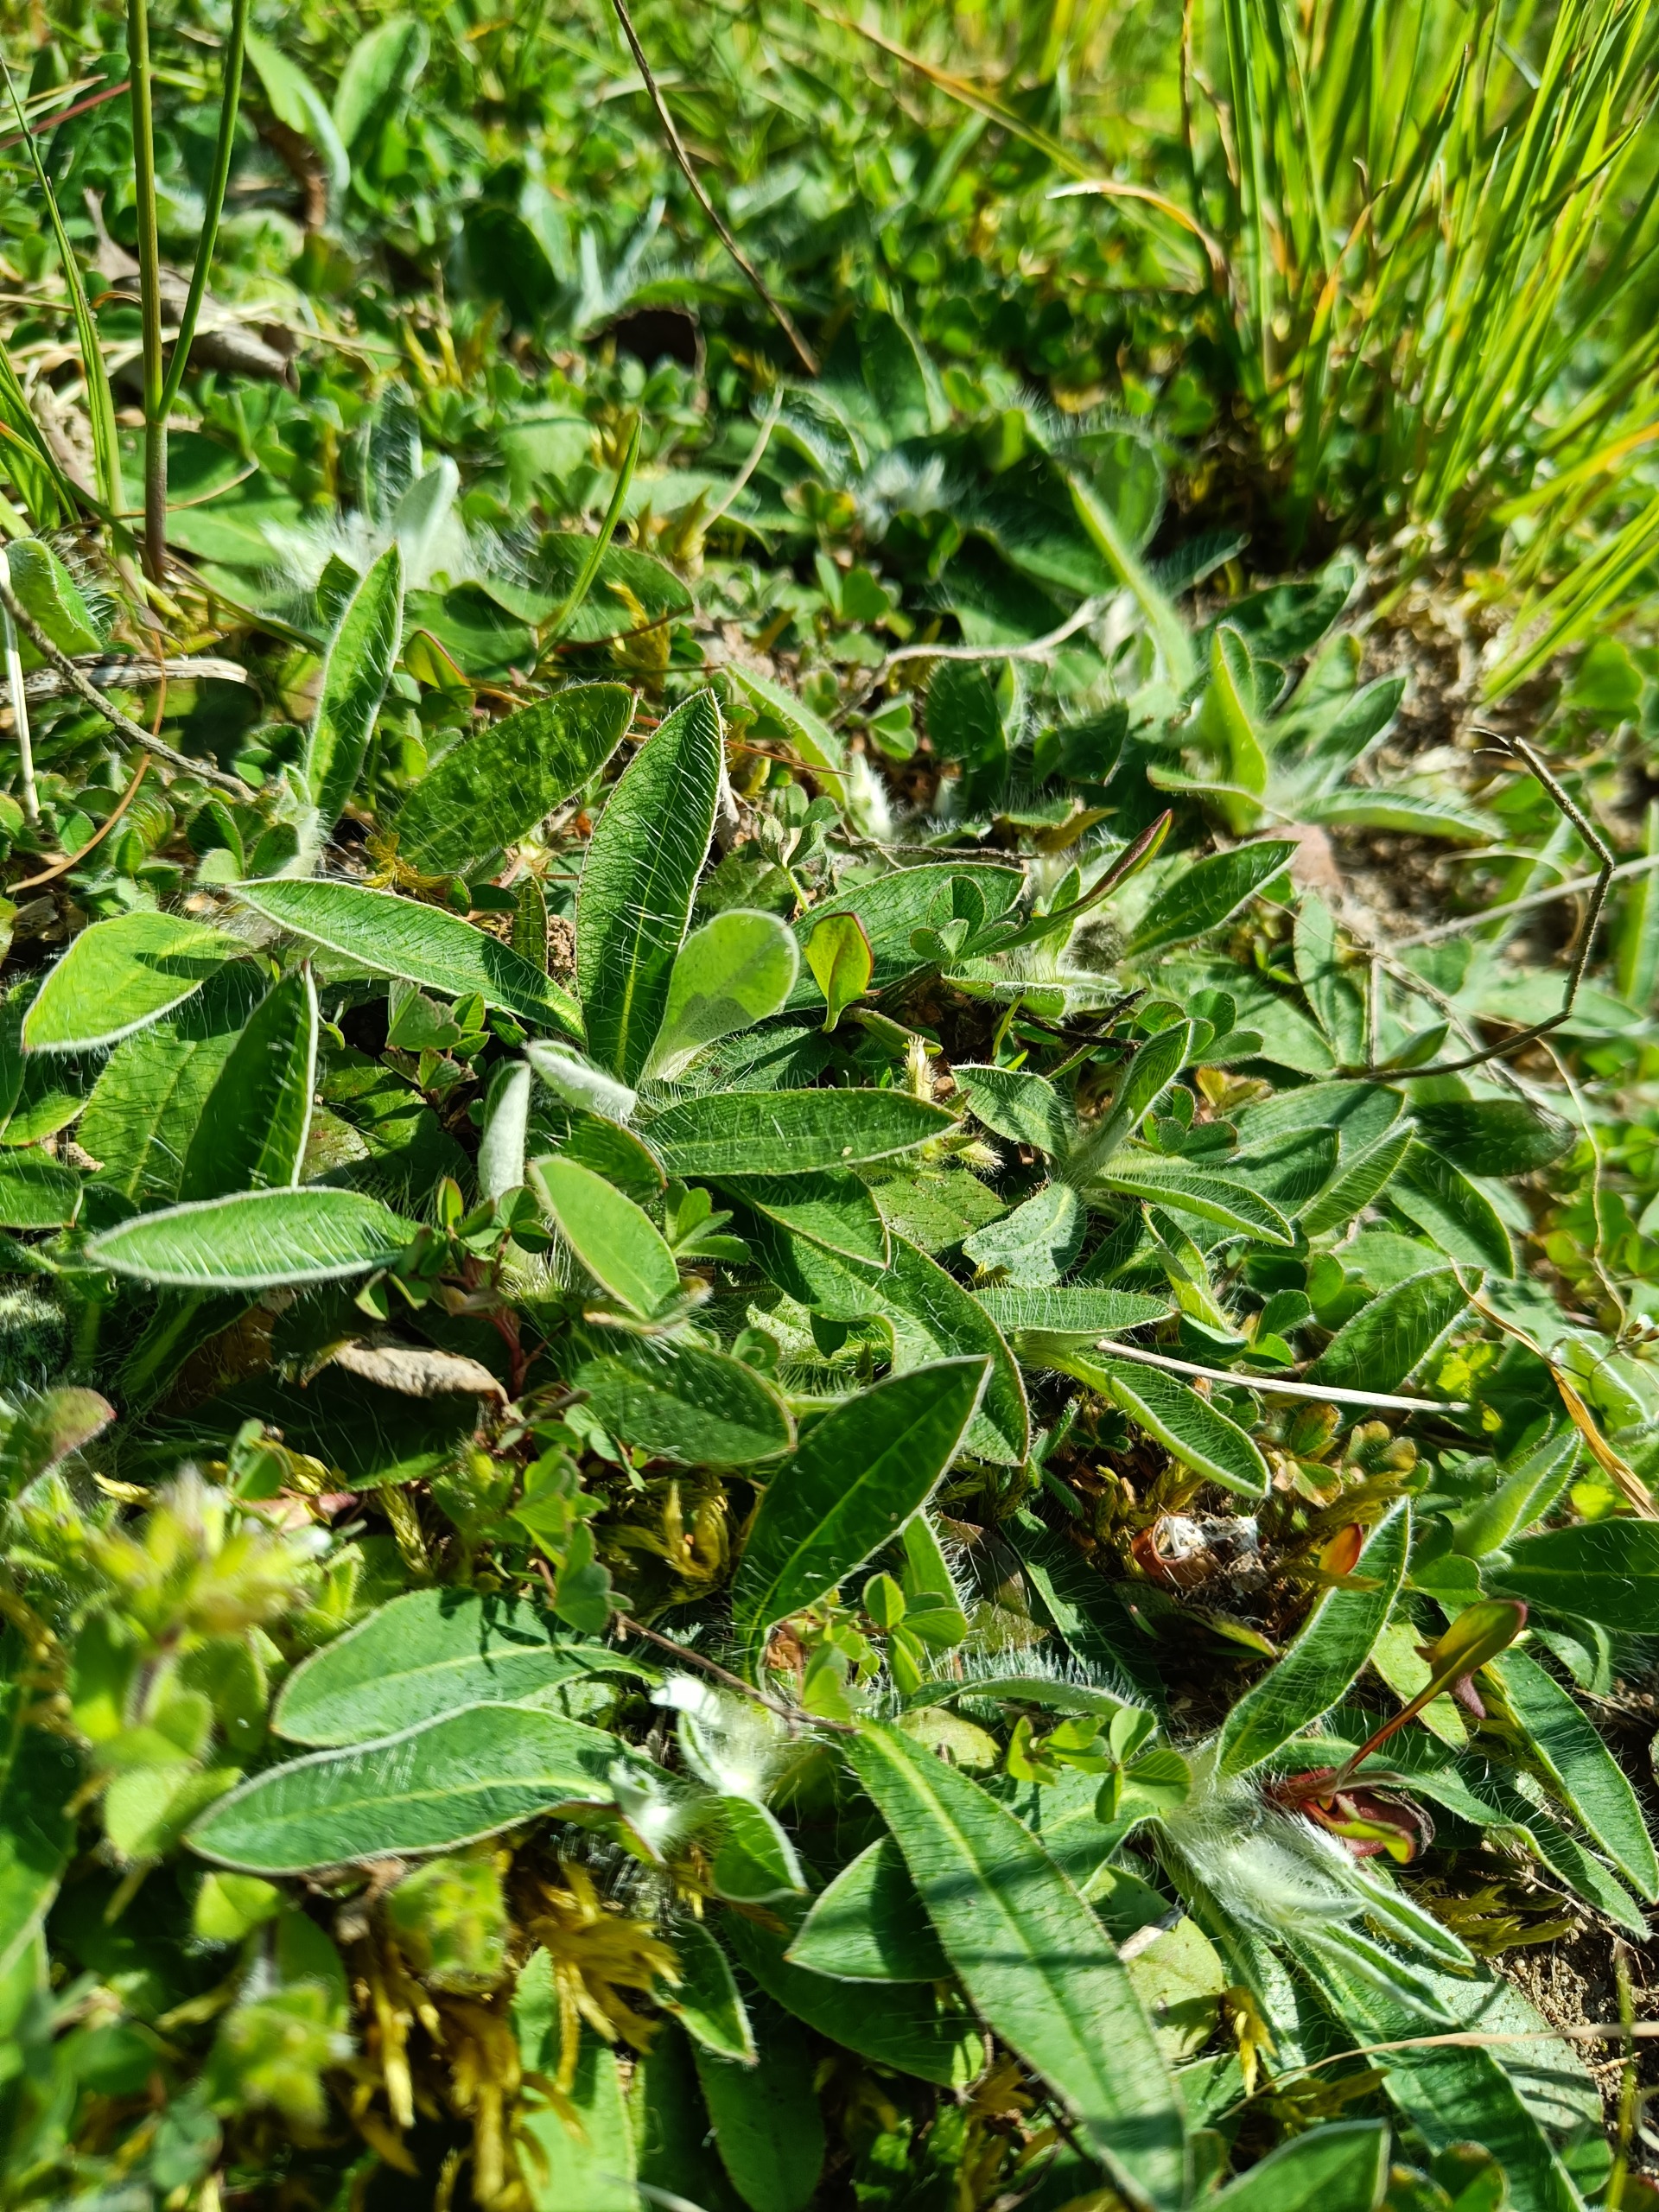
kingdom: Plantae
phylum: Tracheophyta
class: Magnoliopsida
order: Asterales
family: Asteraceae
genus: Pilosella
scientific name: Pilosella officinarum
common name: Håret høgeurt
